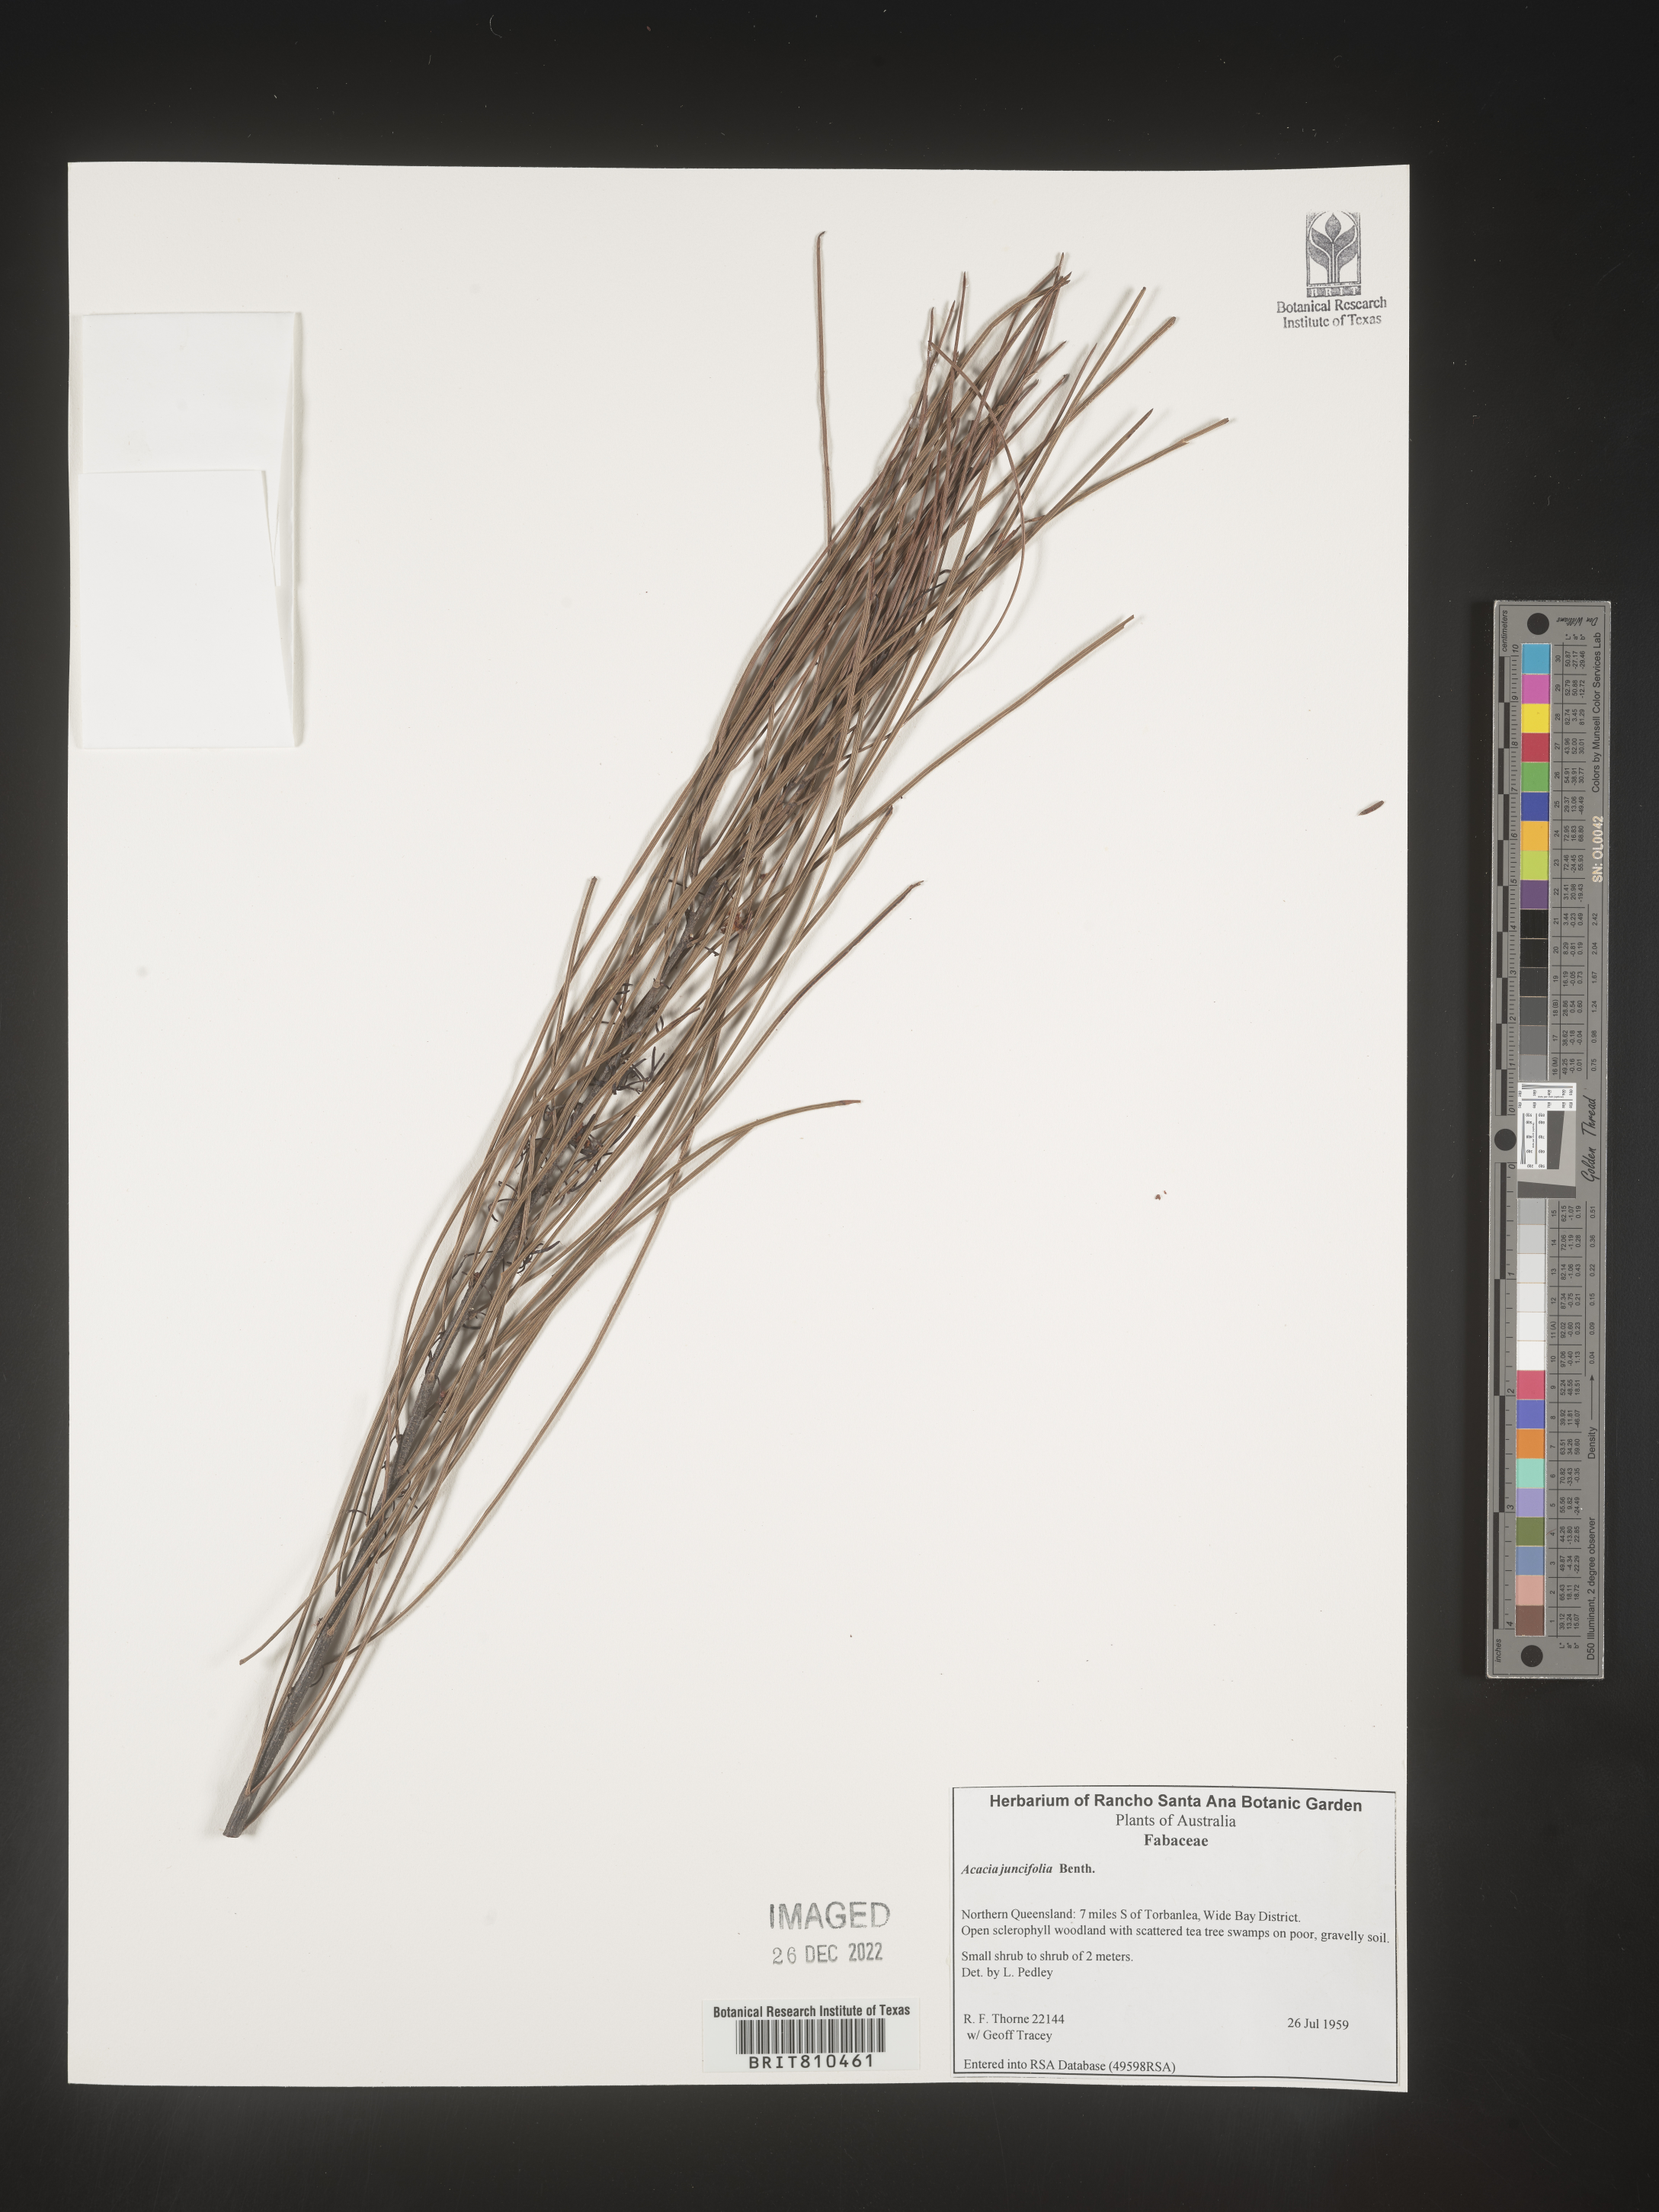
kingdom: Plantae
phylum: Tracheophyta
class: Magnoliopsida
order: Fabales
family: Fabaceae
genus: Acacia
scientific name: Acacia
